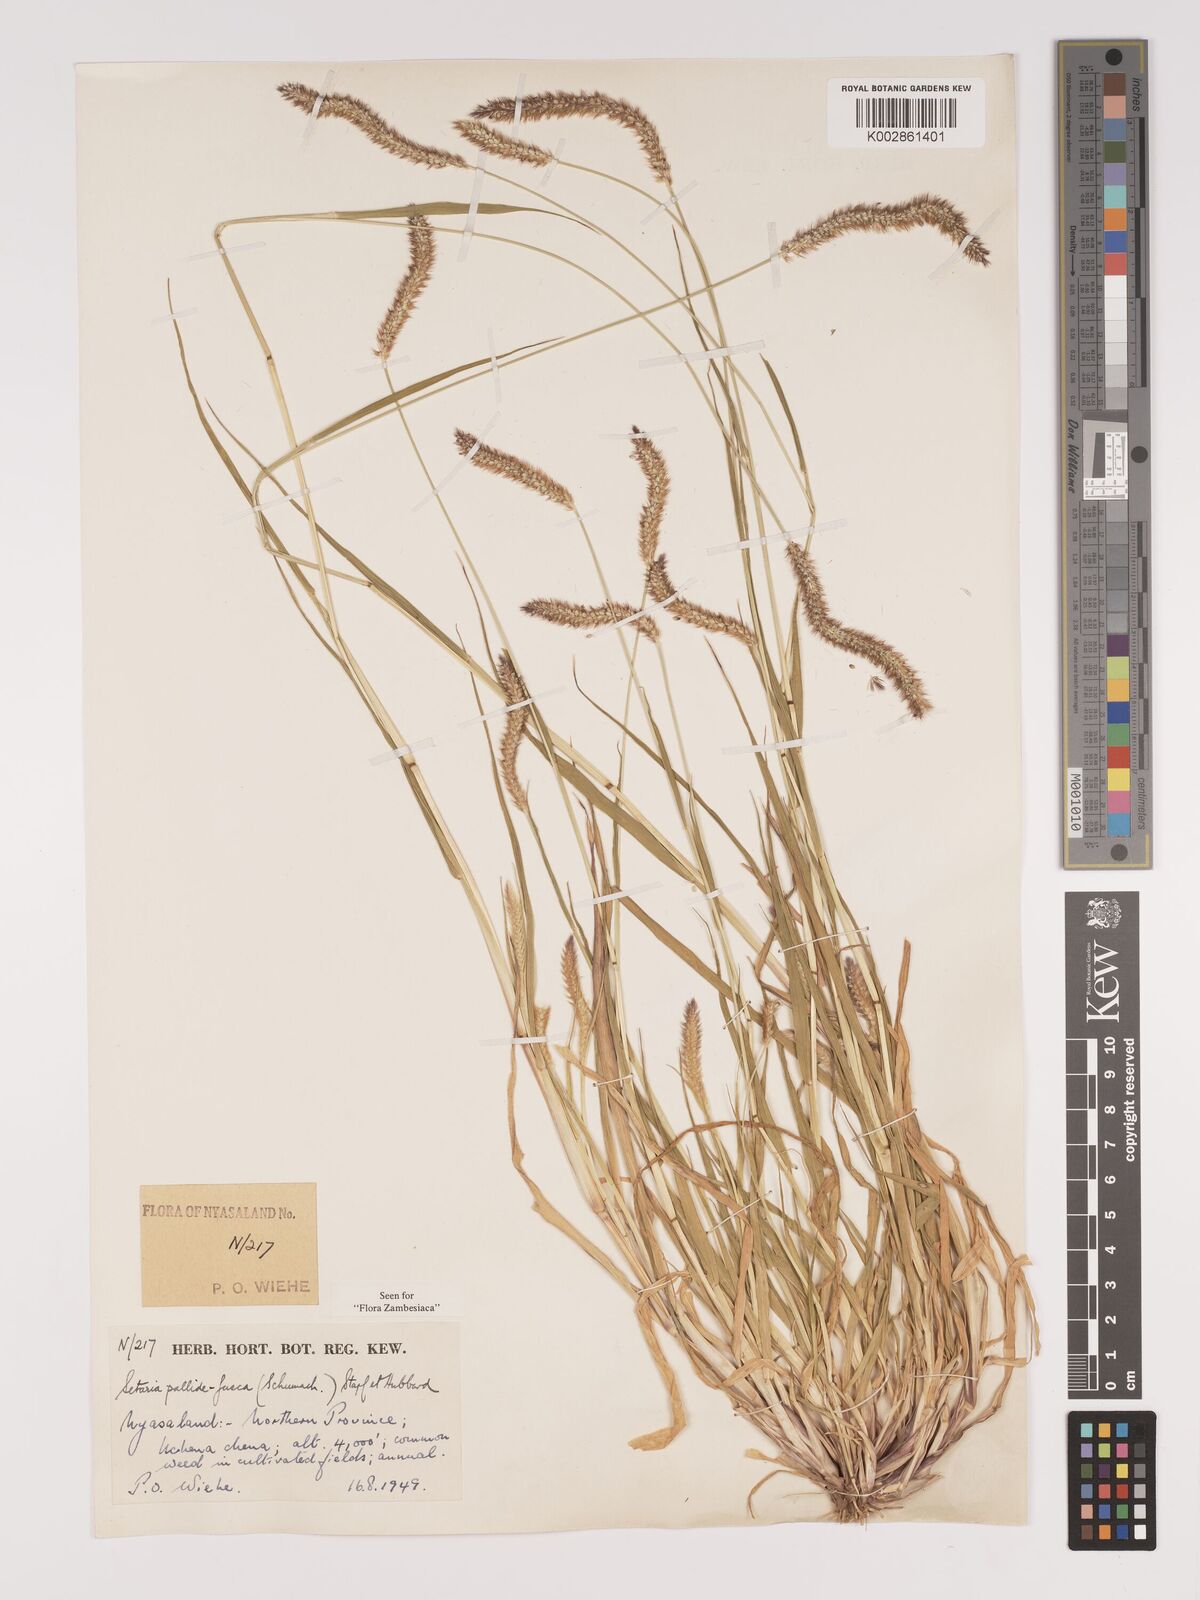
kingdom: Plantae
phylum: Tracheophyta
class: Liliopsida
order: Poales
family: Poaceae
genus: Setaria
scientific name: Setaria pumila
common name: Yellow bristle-grass
